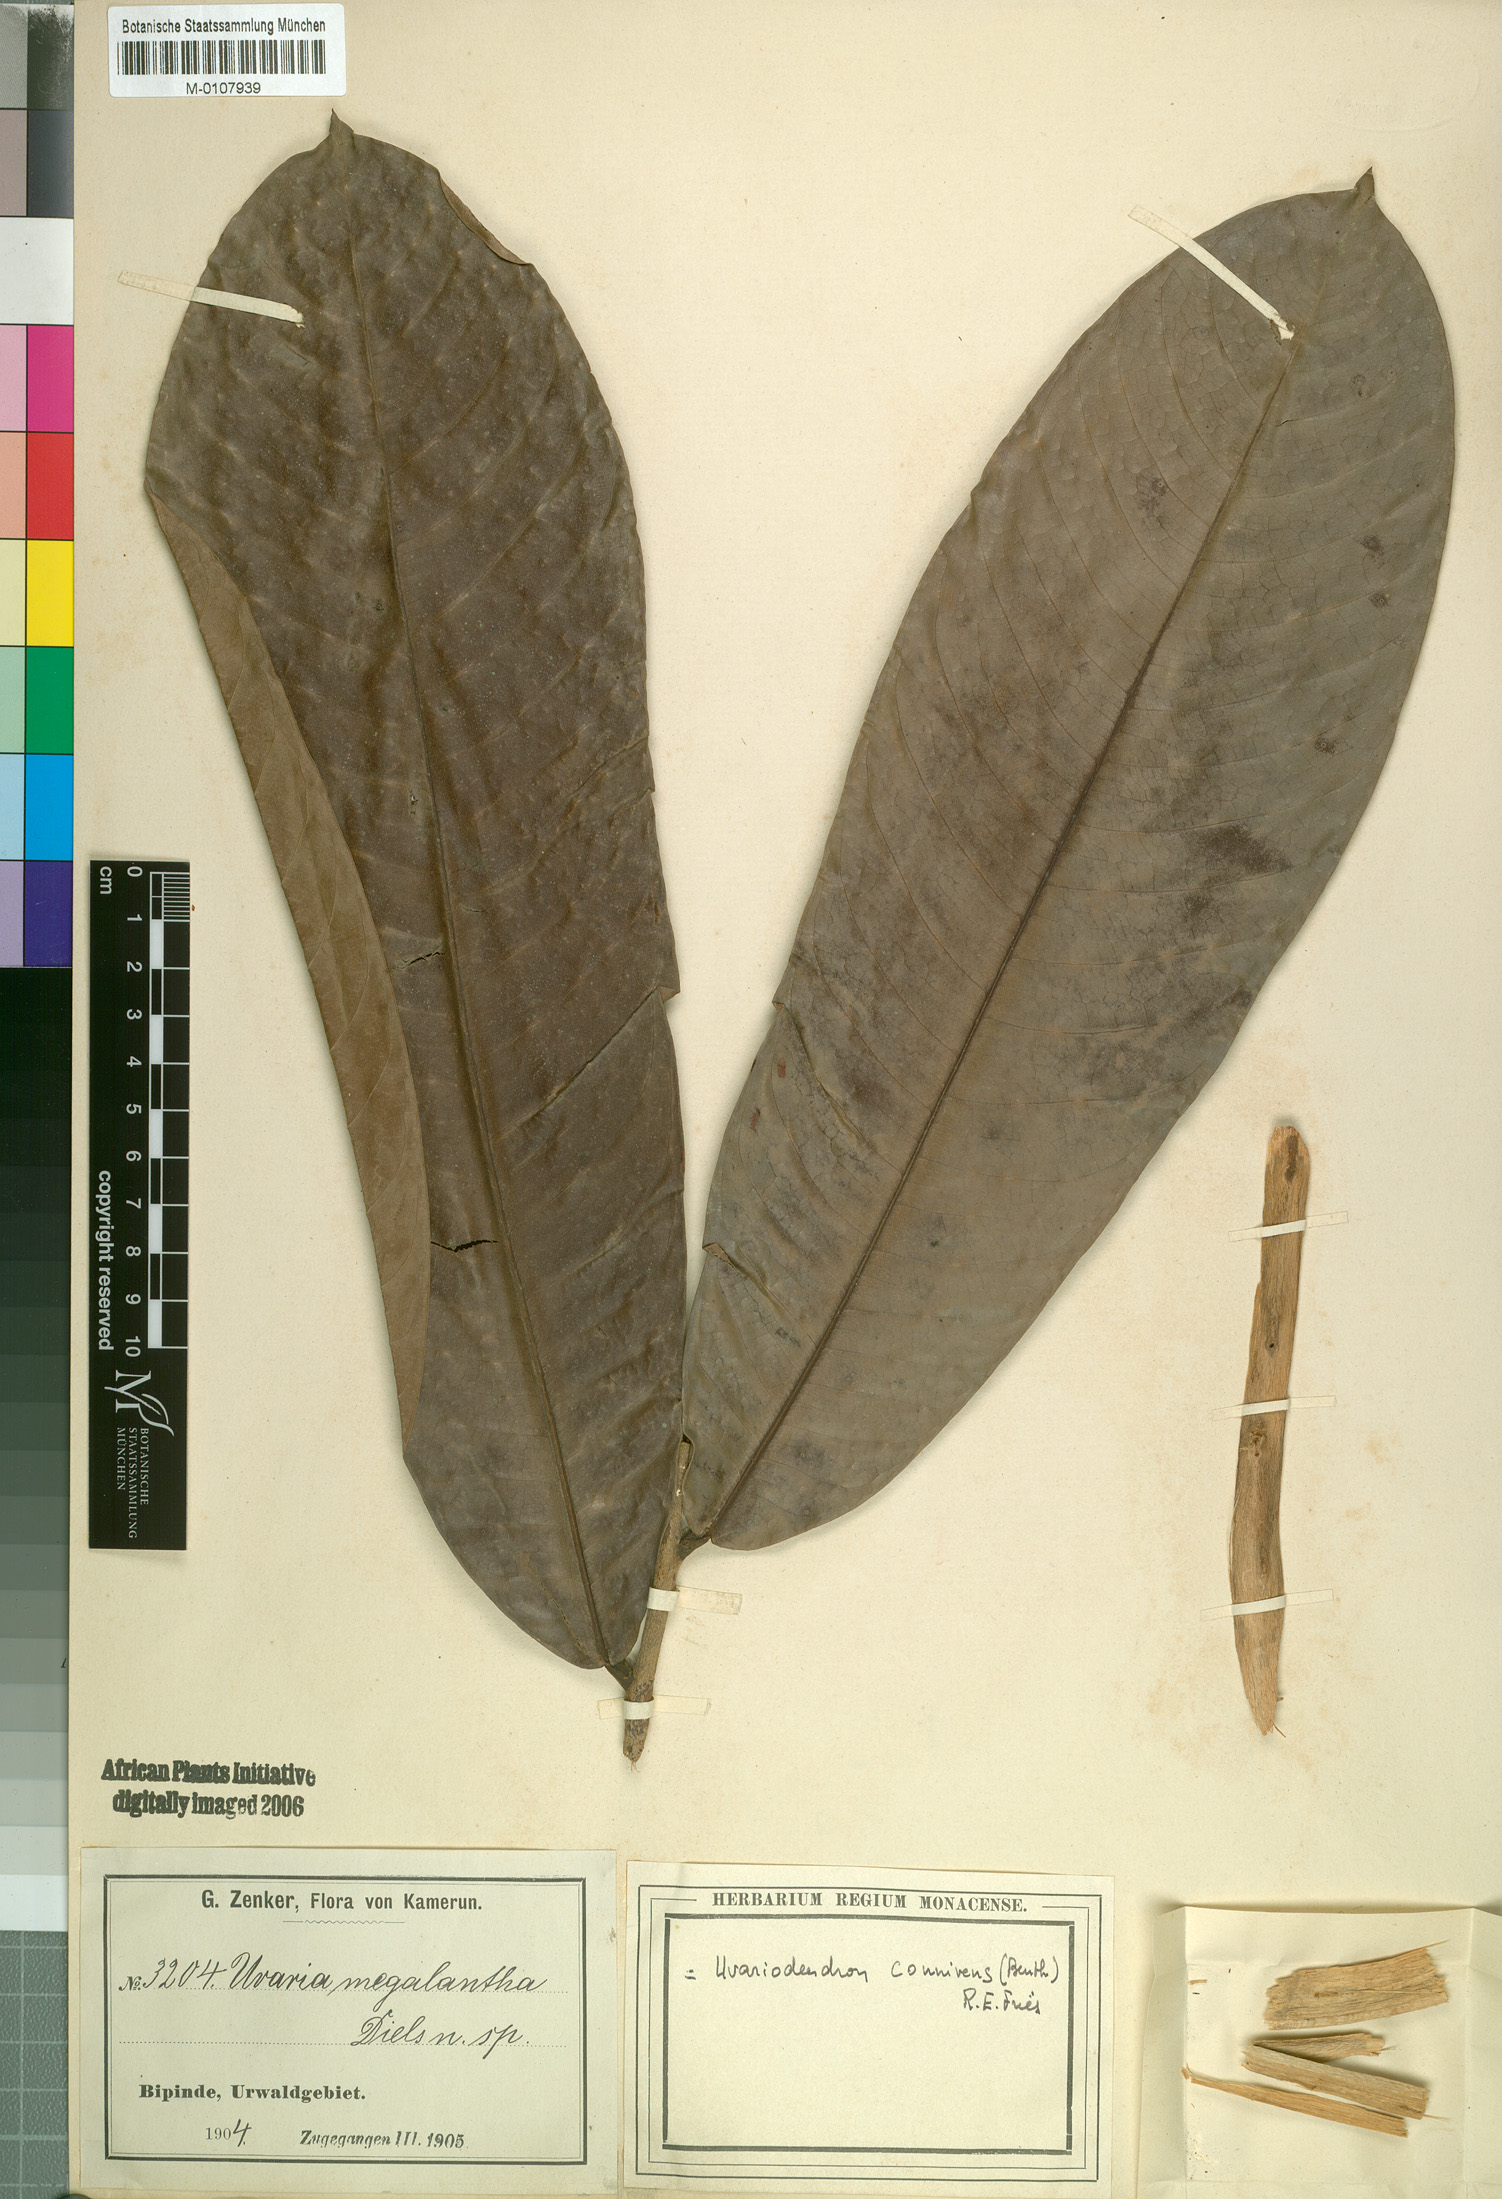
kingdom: Plantae
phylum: Tracheophyta
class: Magnoliopsida
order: Magnoliales
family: Annonaceae
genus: Uvariodendron
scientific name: Uvariodendron connivens
